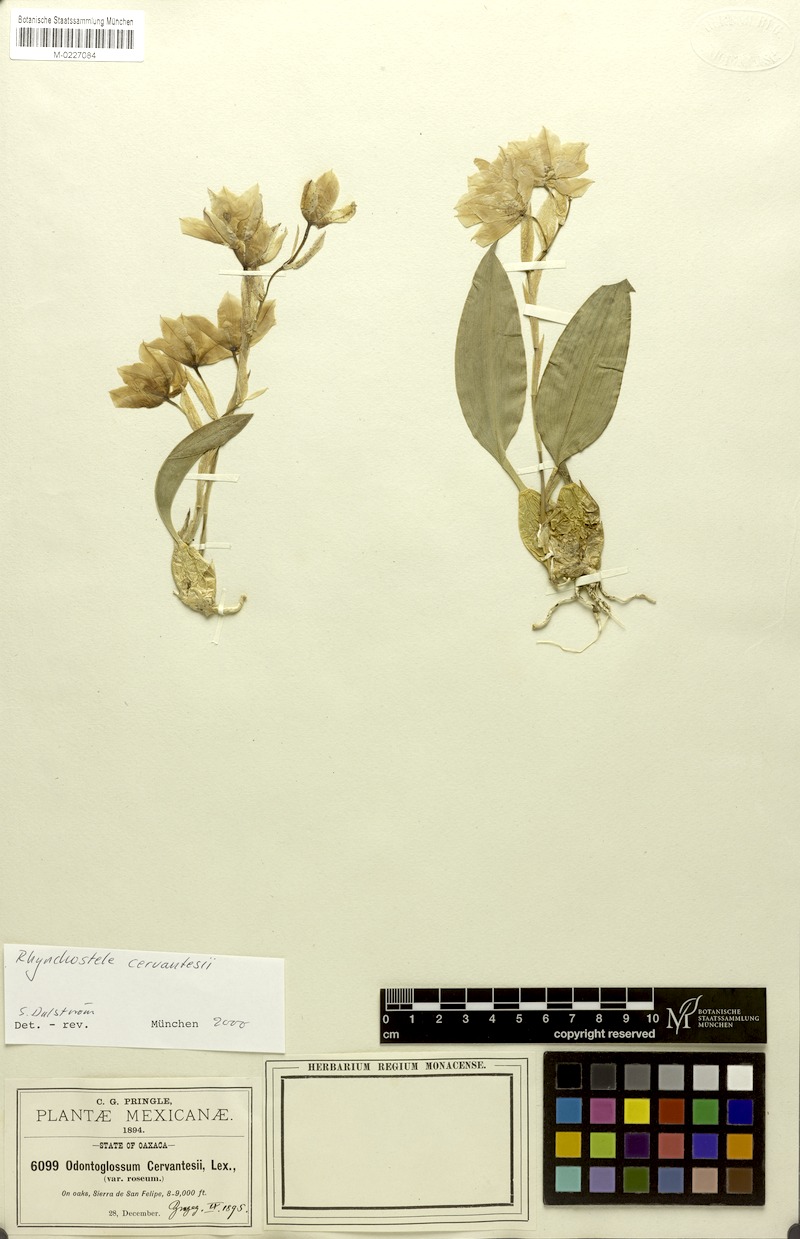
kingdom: Plantae
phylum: Tracheophyta
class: Liliopsida
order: Asparagales
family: Orchidaceae
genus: Rhynchostele
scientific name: Rhynchostele cervantesii
